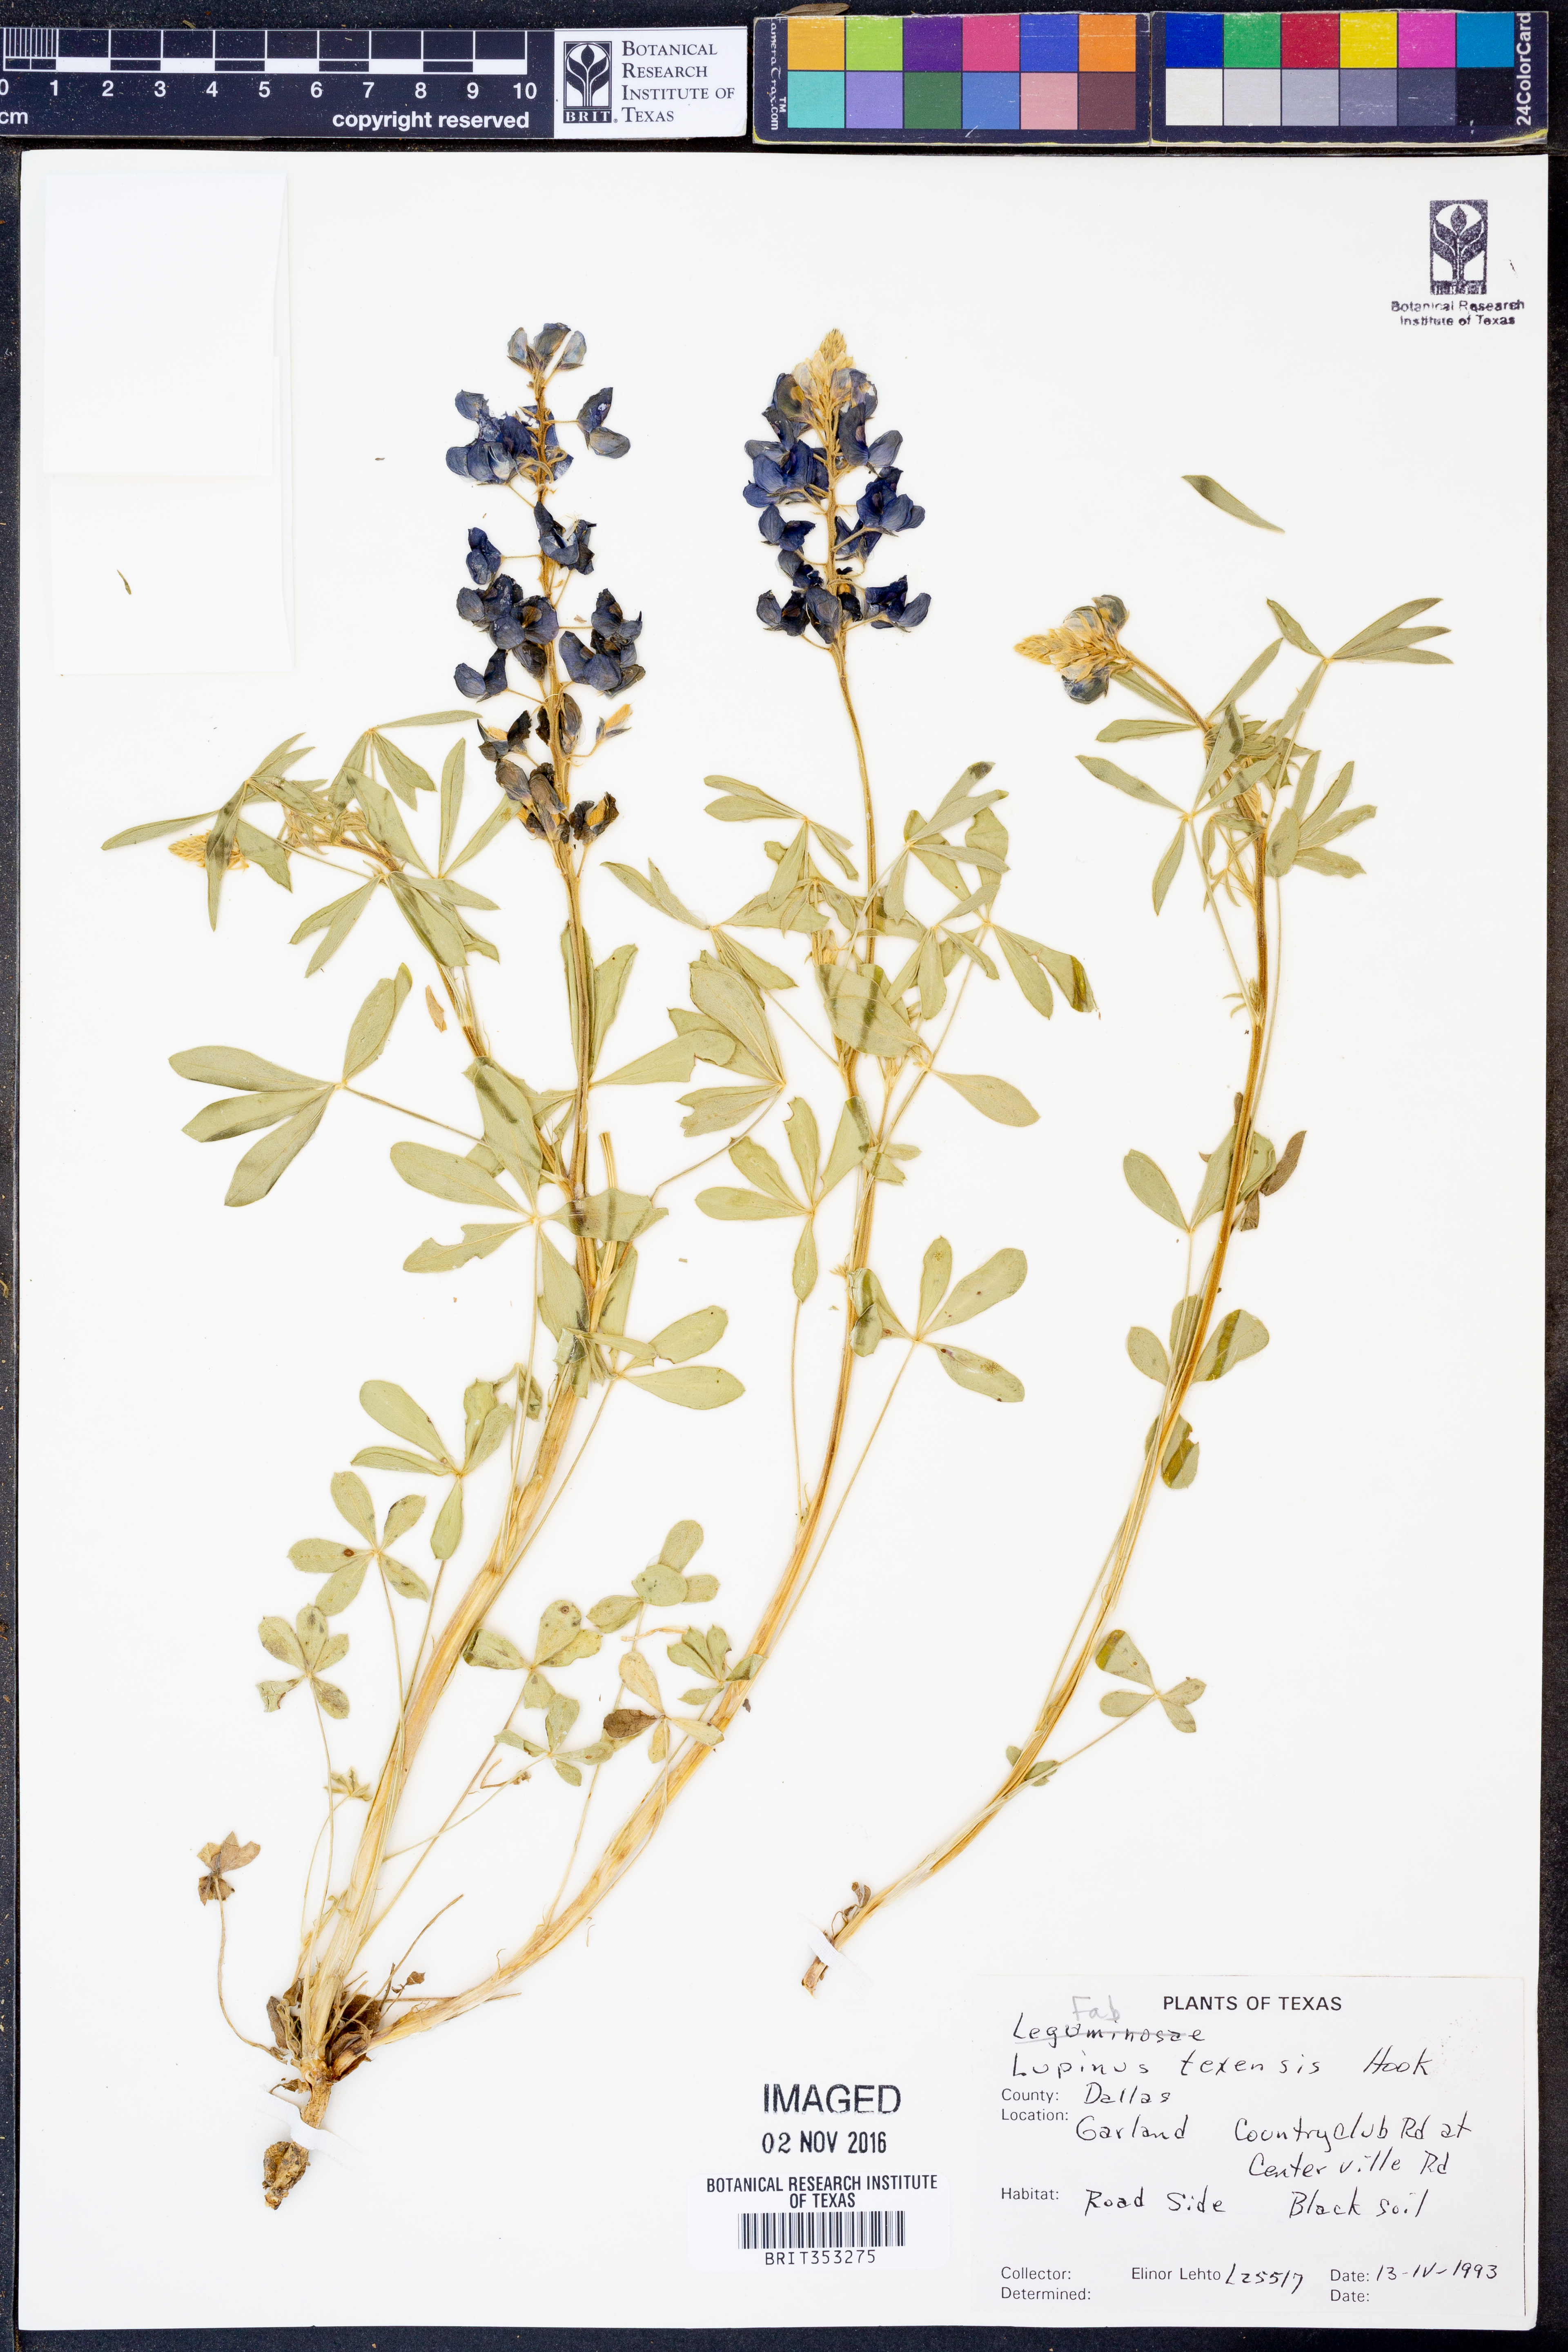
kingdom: Plantae
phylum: Tracheophyta
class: Magnoliopsida
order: Fabales
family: Fabaceae
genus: Lupinus
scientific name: Lupinus texensis
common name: Texas bluebonnet
